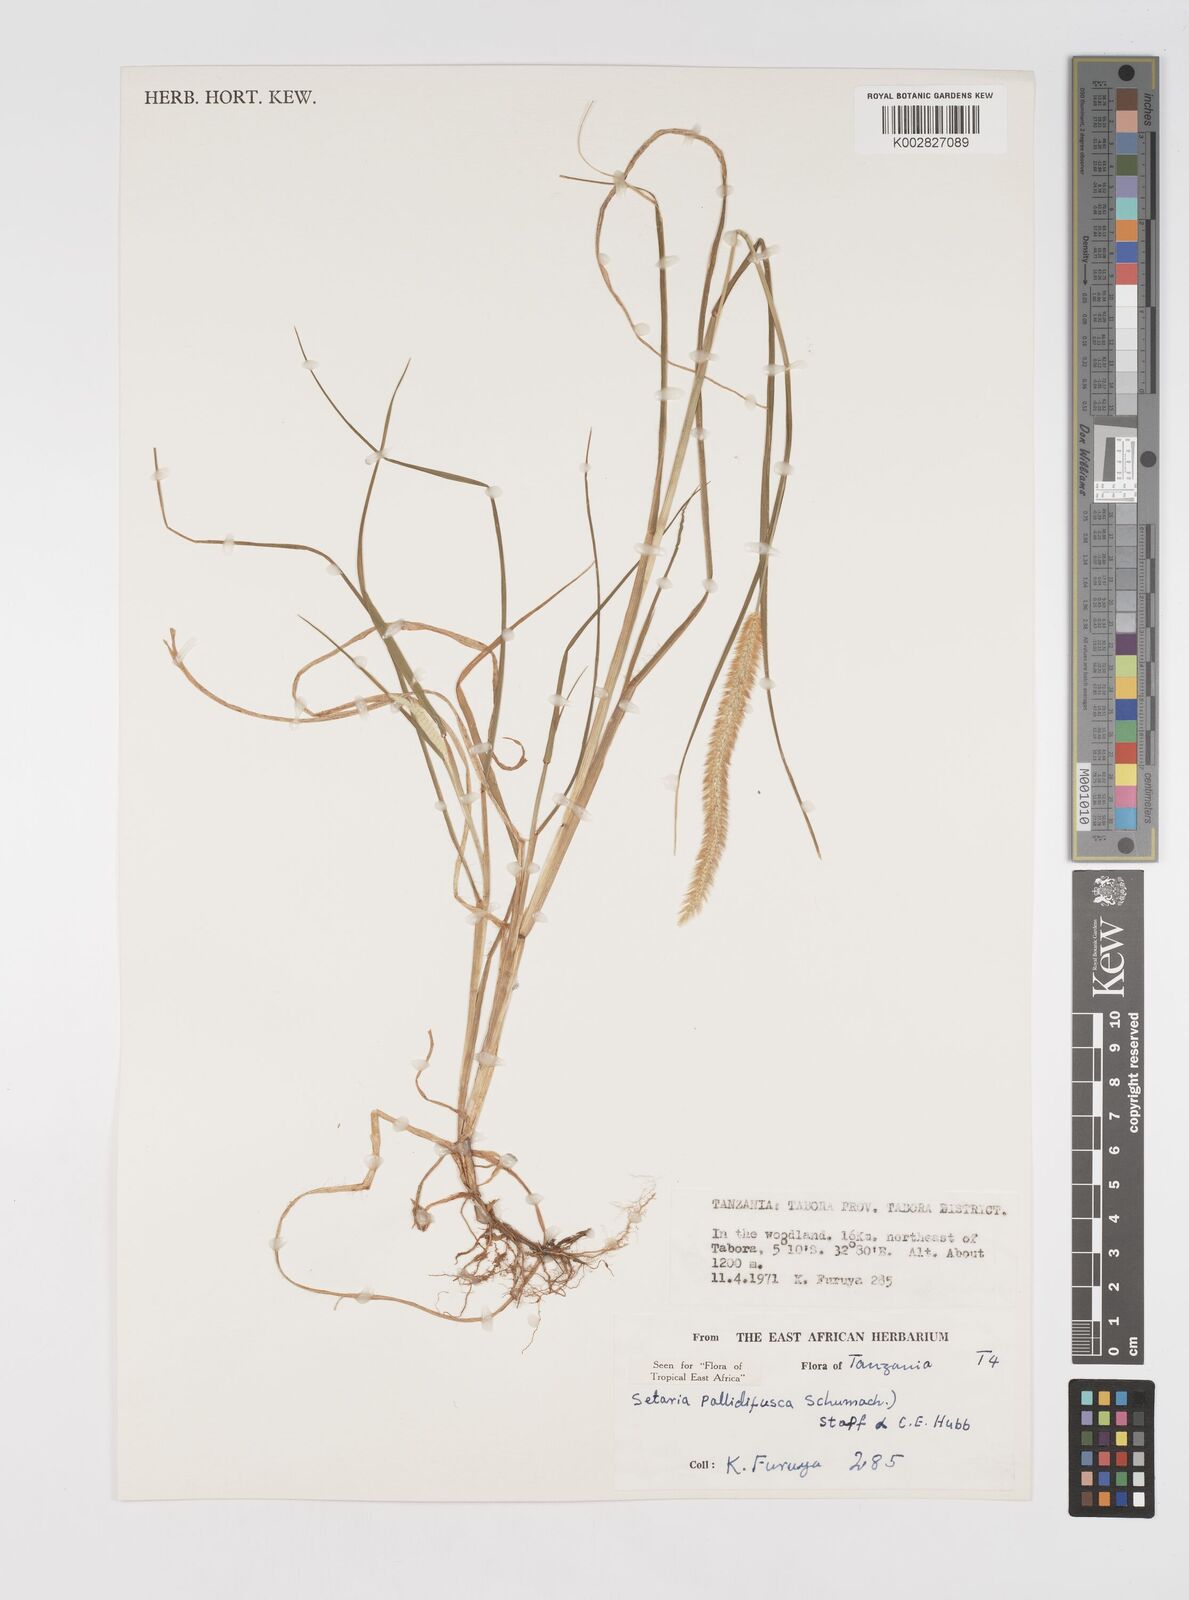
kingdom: Plantae
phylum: Tracheophyta
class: Liliopsida
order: Poales
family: Poaceae
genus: Setaria
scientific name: Setaria pumila
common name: Yellow bristle-grass
